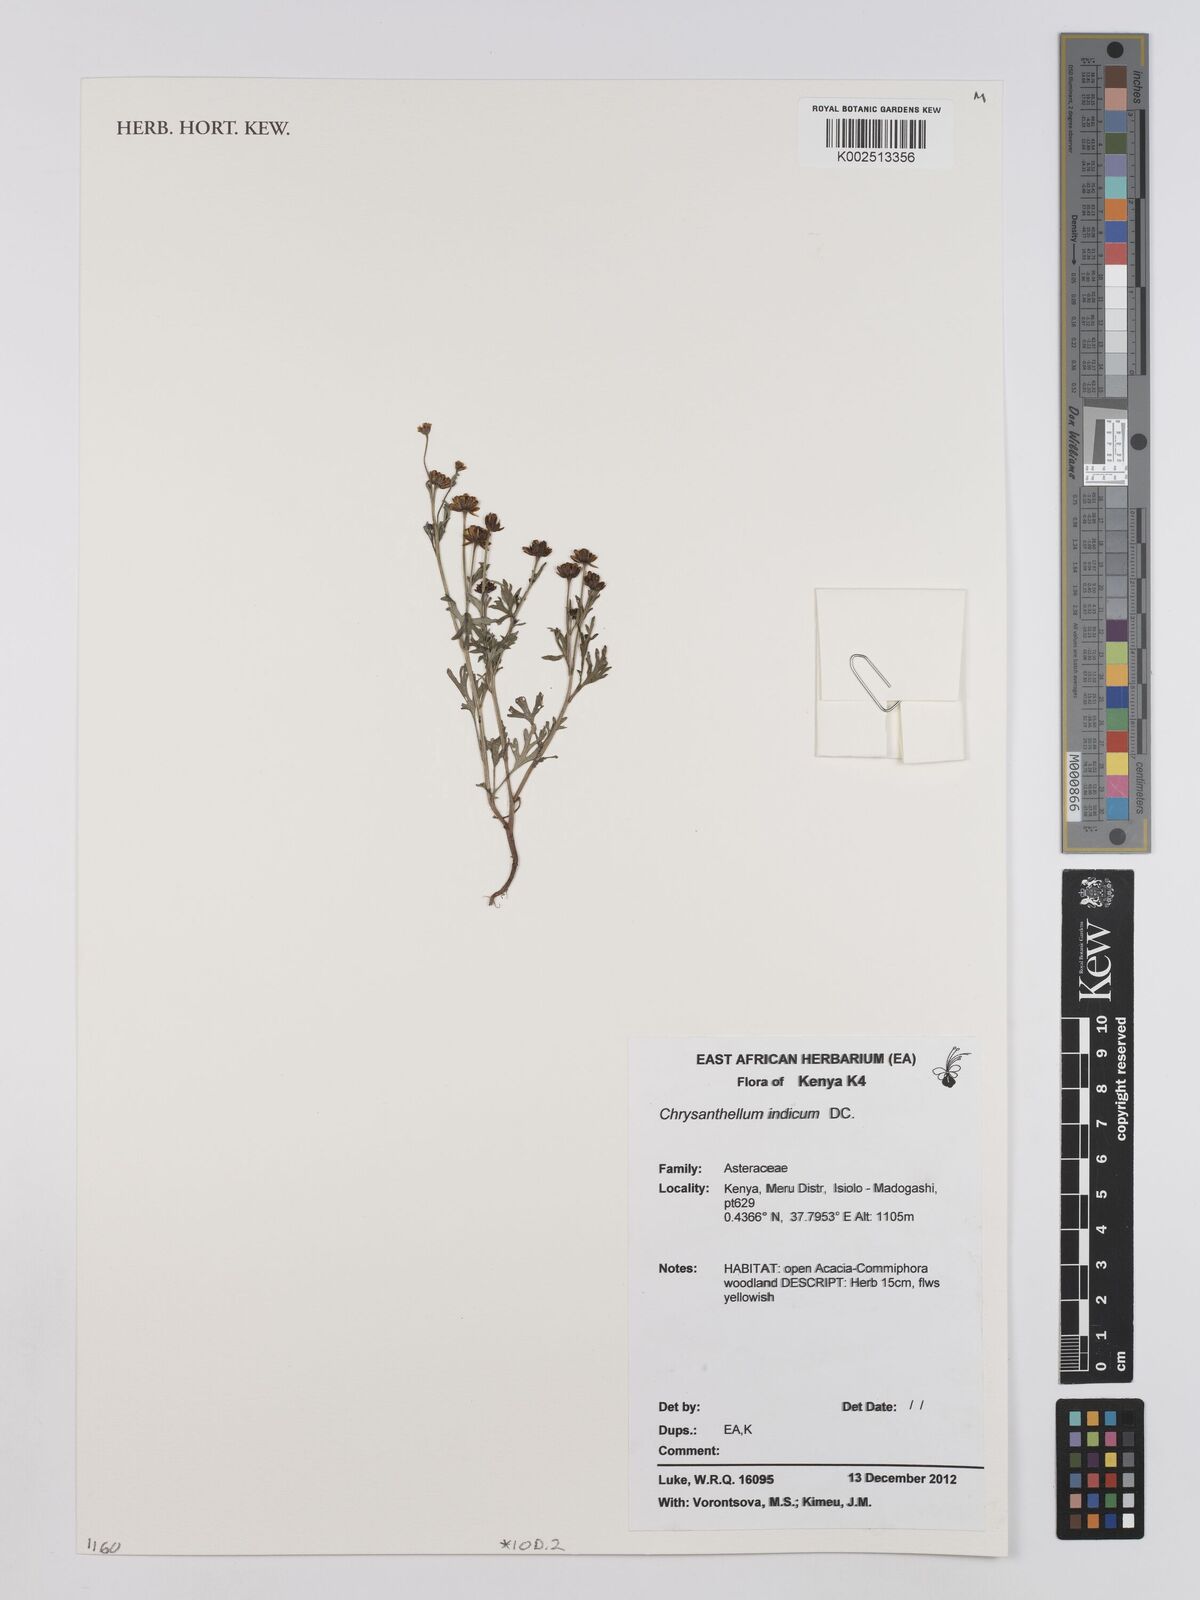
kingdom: Plantae
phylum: Tracheophyta
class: Magnoliopsida
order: Asterales
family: Asteraceae
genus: Chrysanthellum
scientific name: Chrysanthellum indicum
